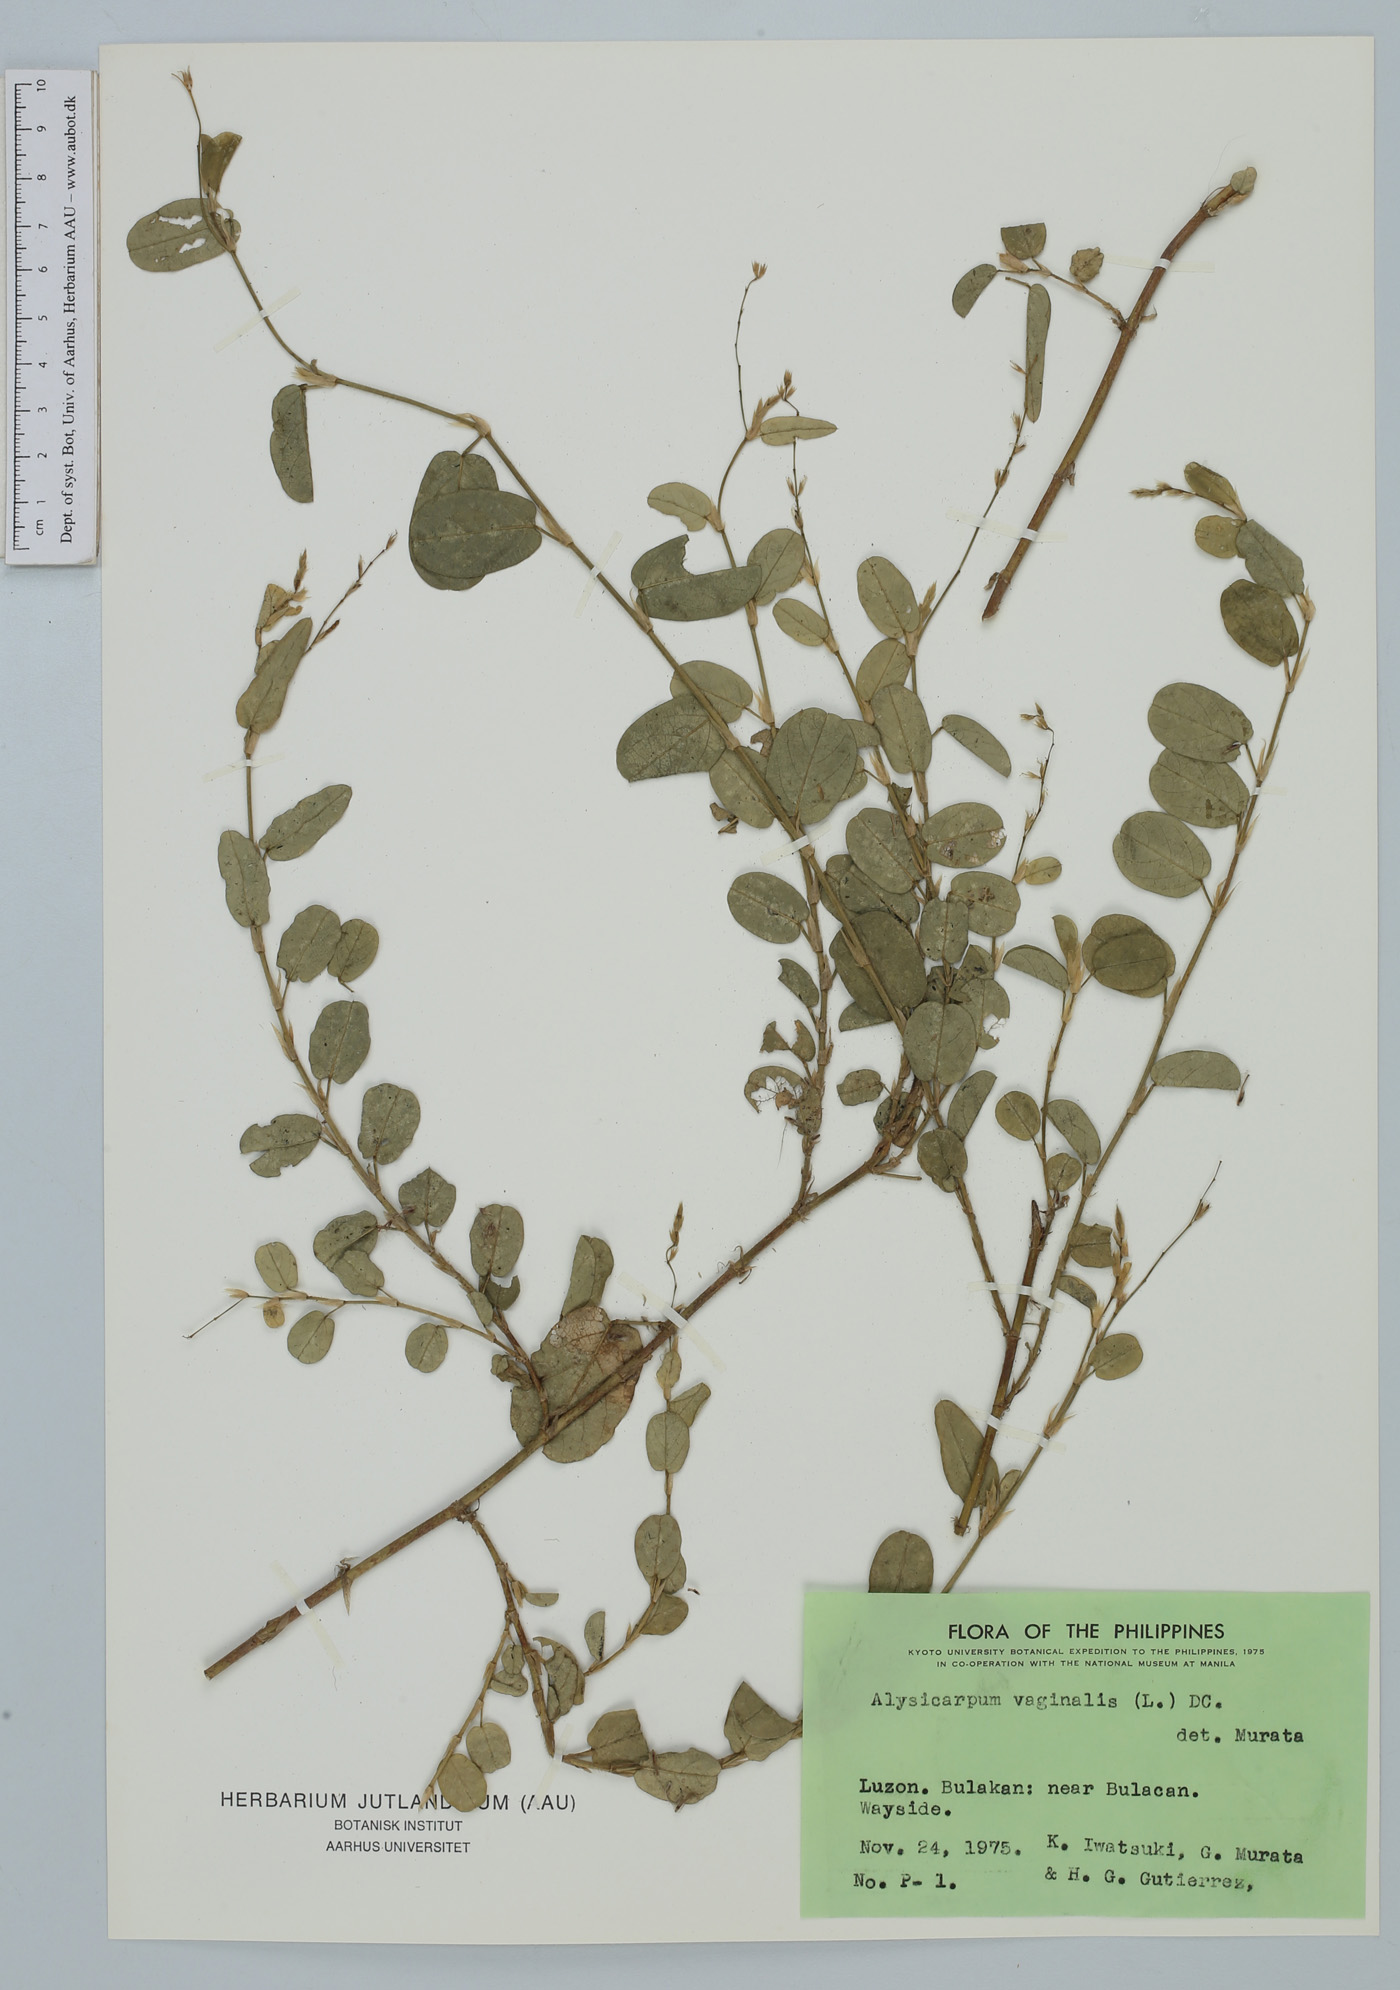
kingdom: Plantae
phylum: Tracheophyta
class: Magnoliopsida
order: Fabales
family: Fabaceae
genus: Alysicarpus
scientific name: Alysicarpus vaginalis
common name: White moneywort
